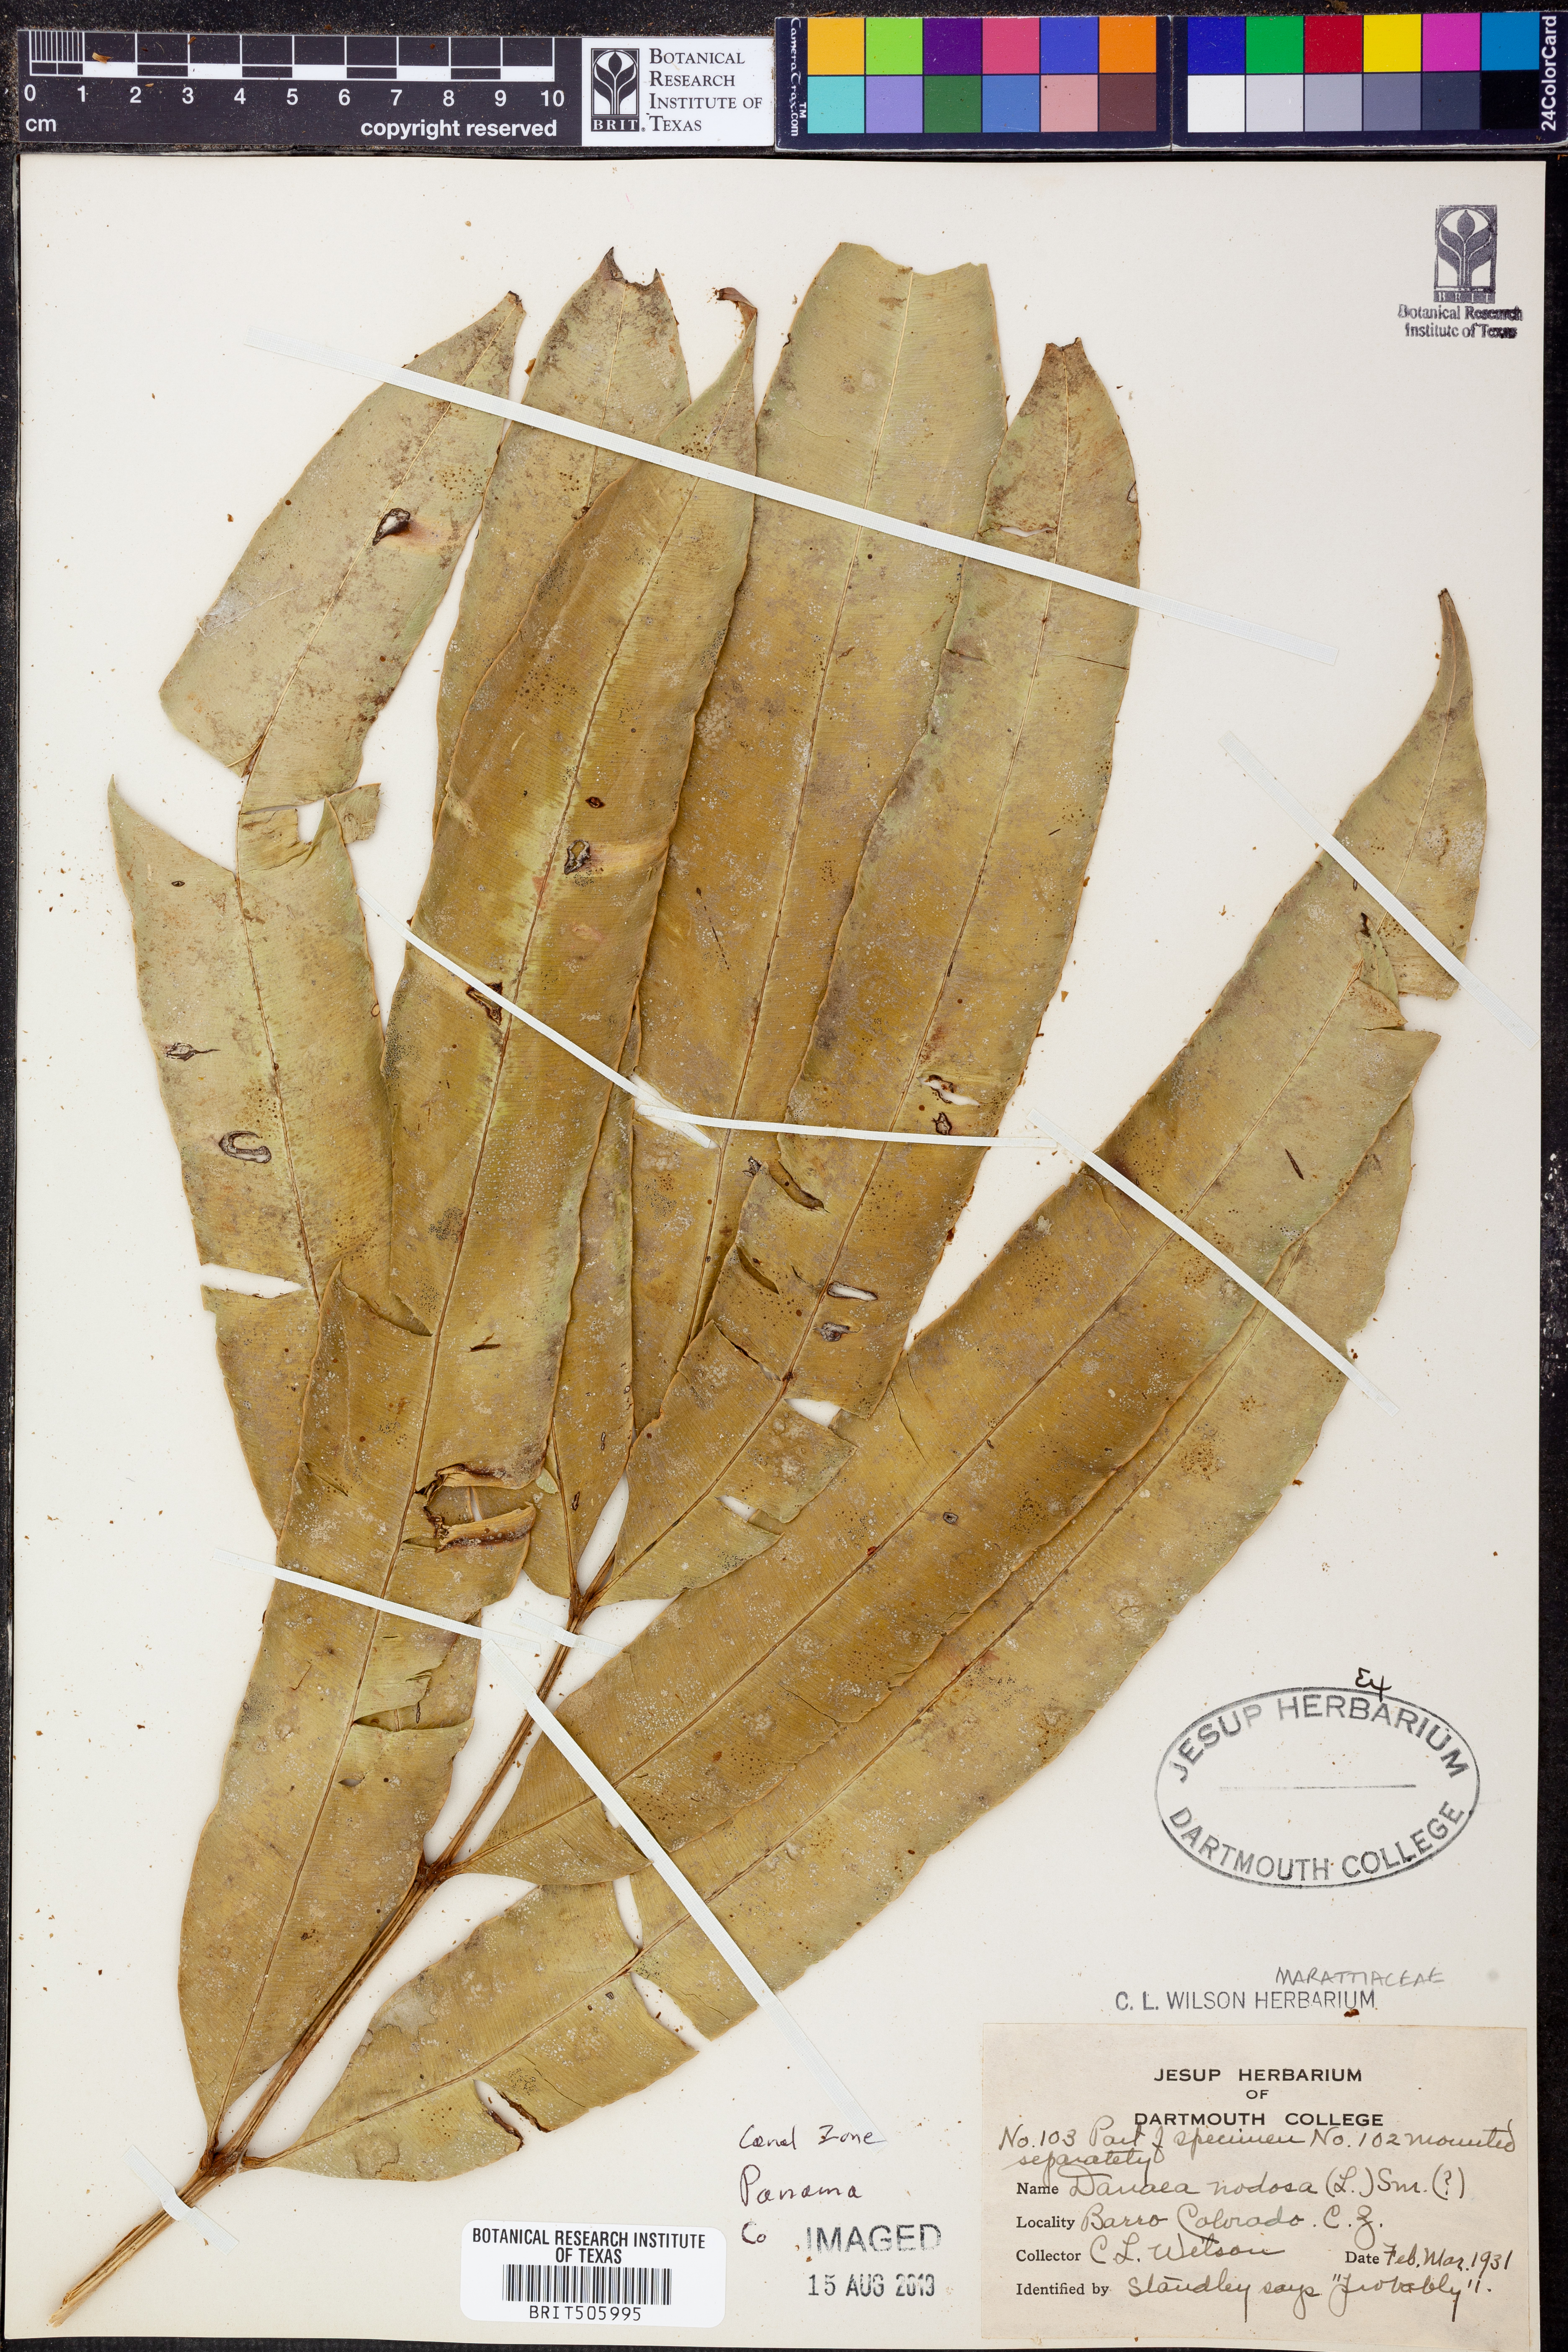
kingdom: Plantae
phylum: Tracheophyta
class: Polypodiopsida
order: Marattiales
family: Marattiaceae
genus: Danaea
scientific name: Danaea nodosa
